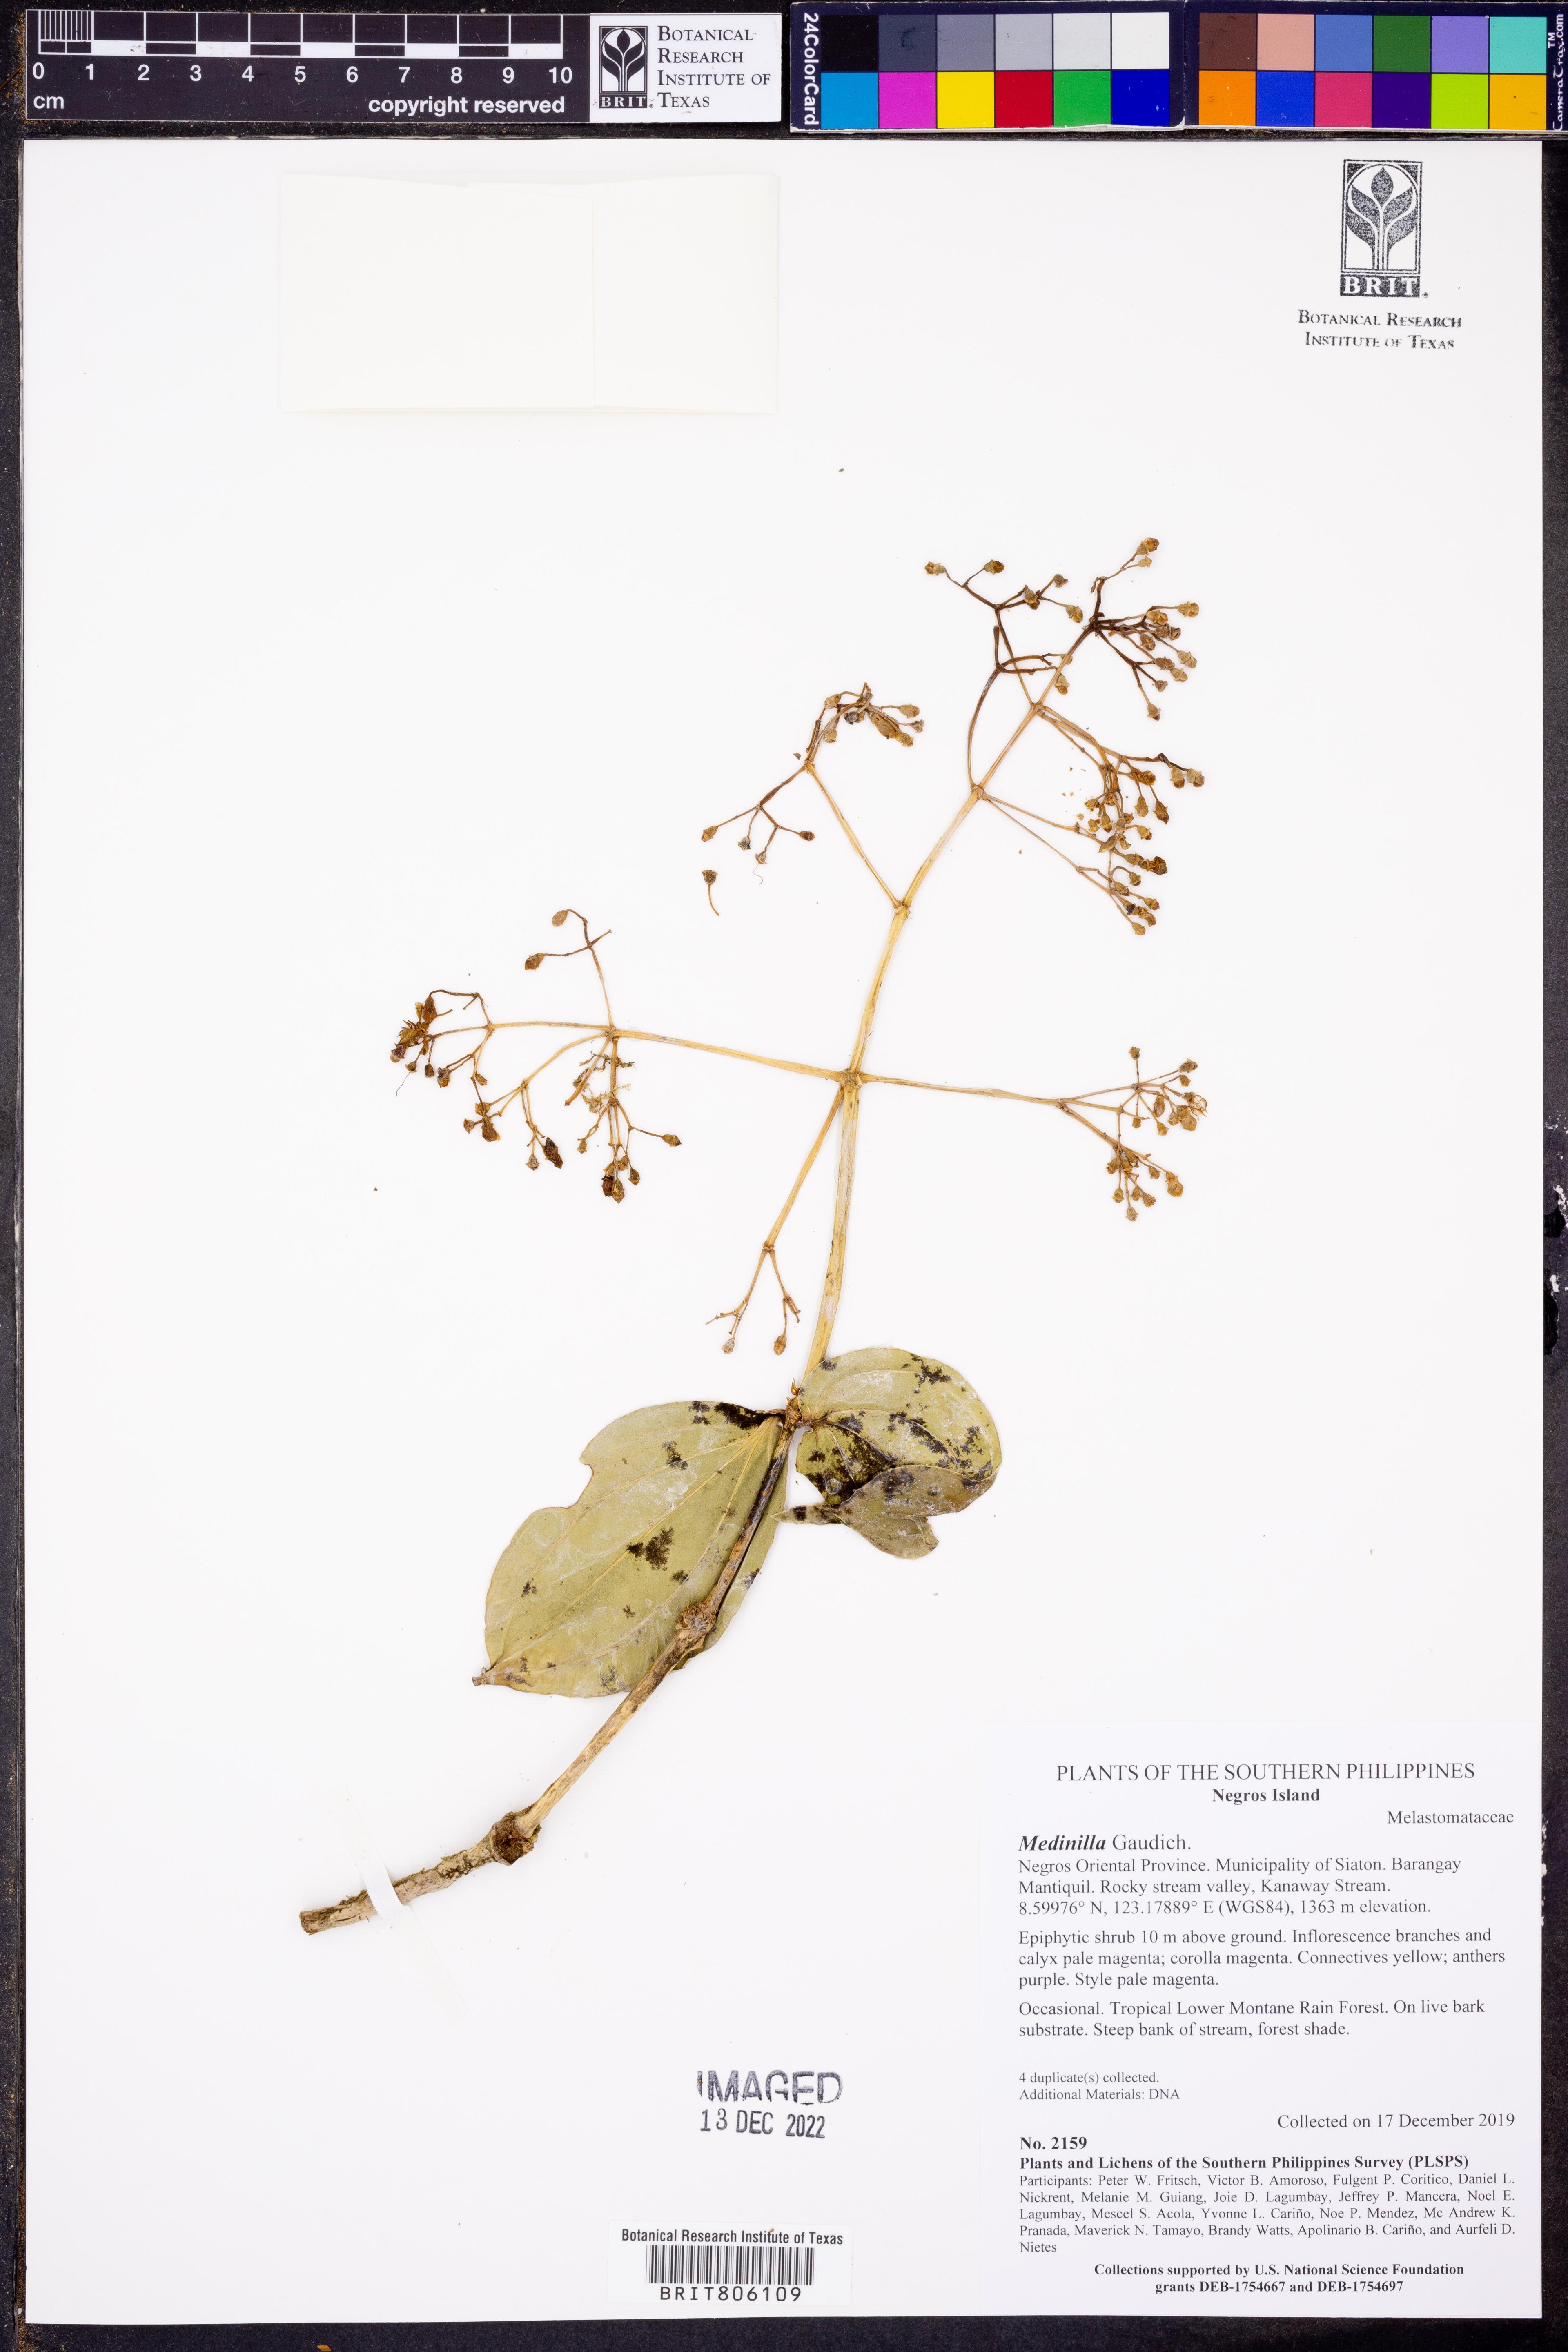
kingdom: Plantae
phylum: Tracheophyta
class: Magnoliopsida
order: Myrtales
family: Melastomataceae
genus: Medinilla
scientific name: Medinilla
